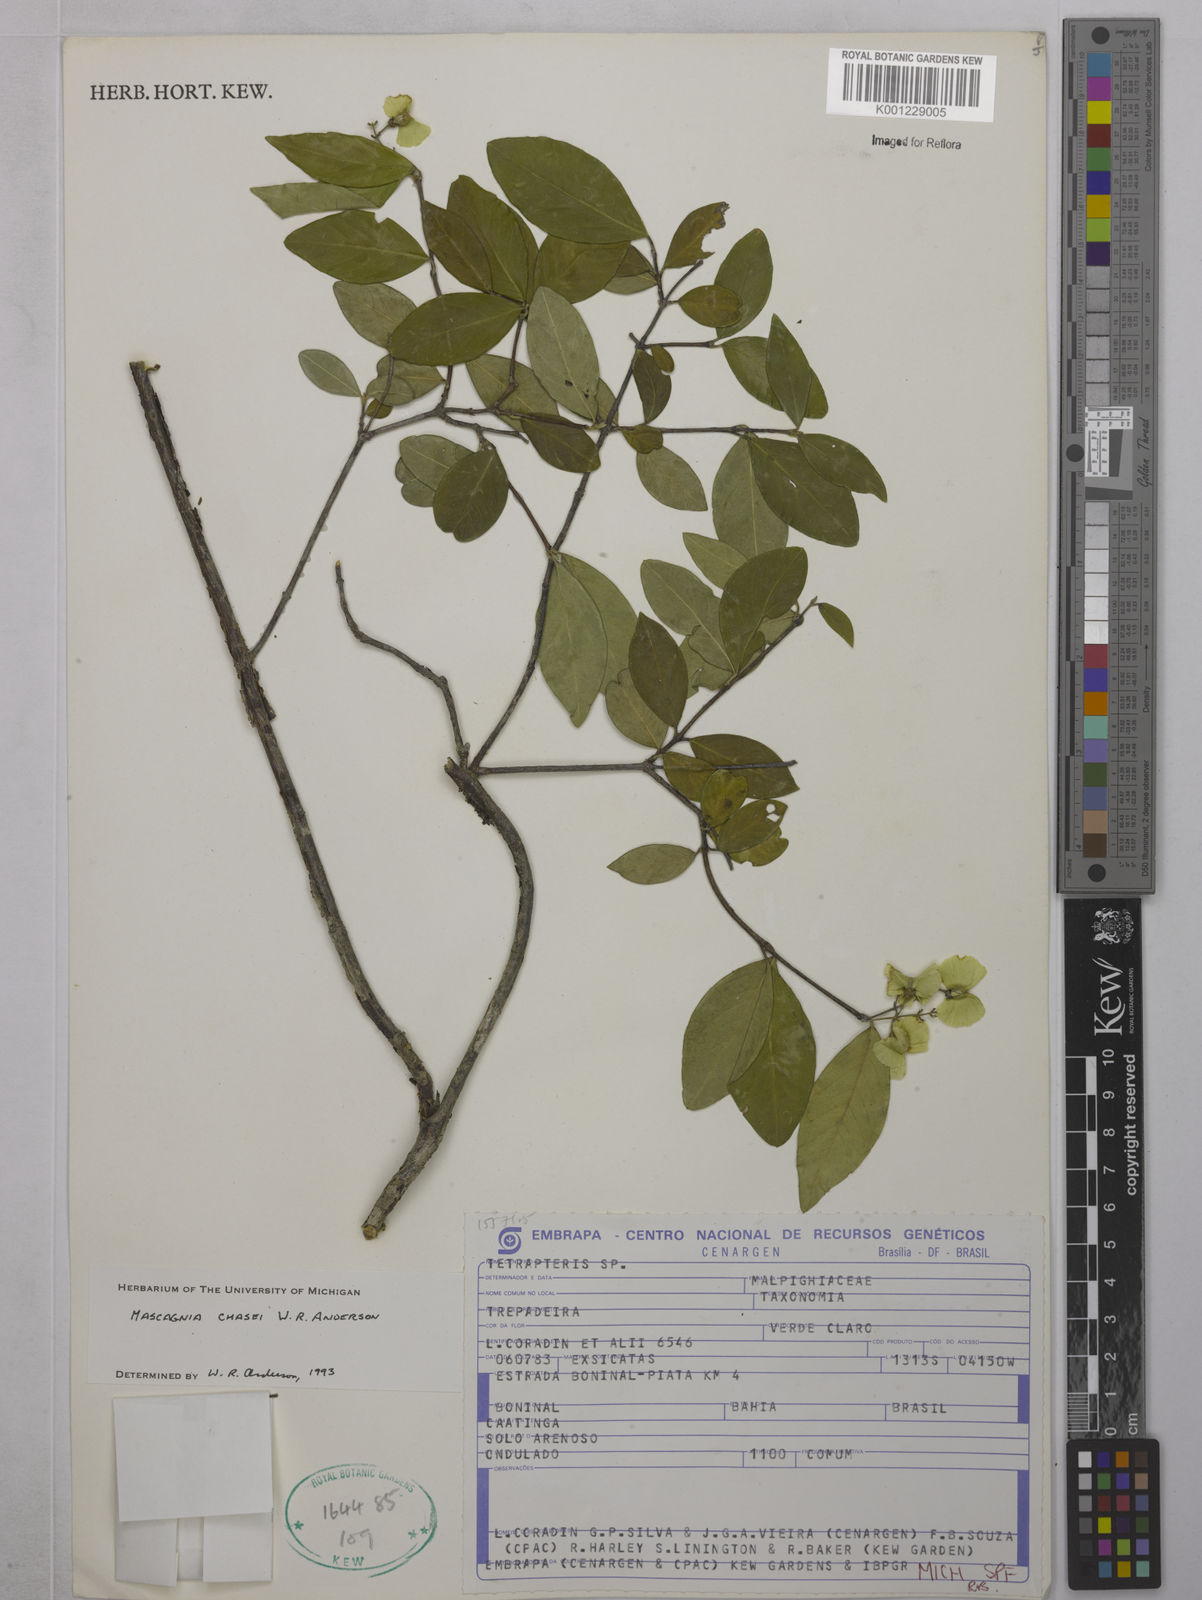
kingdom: Plantae
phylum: Tracheophyta
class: Magnoliopsida
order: Malpighiales
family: Malpighiaceae
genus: Carolus
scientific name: Carolus chasei
